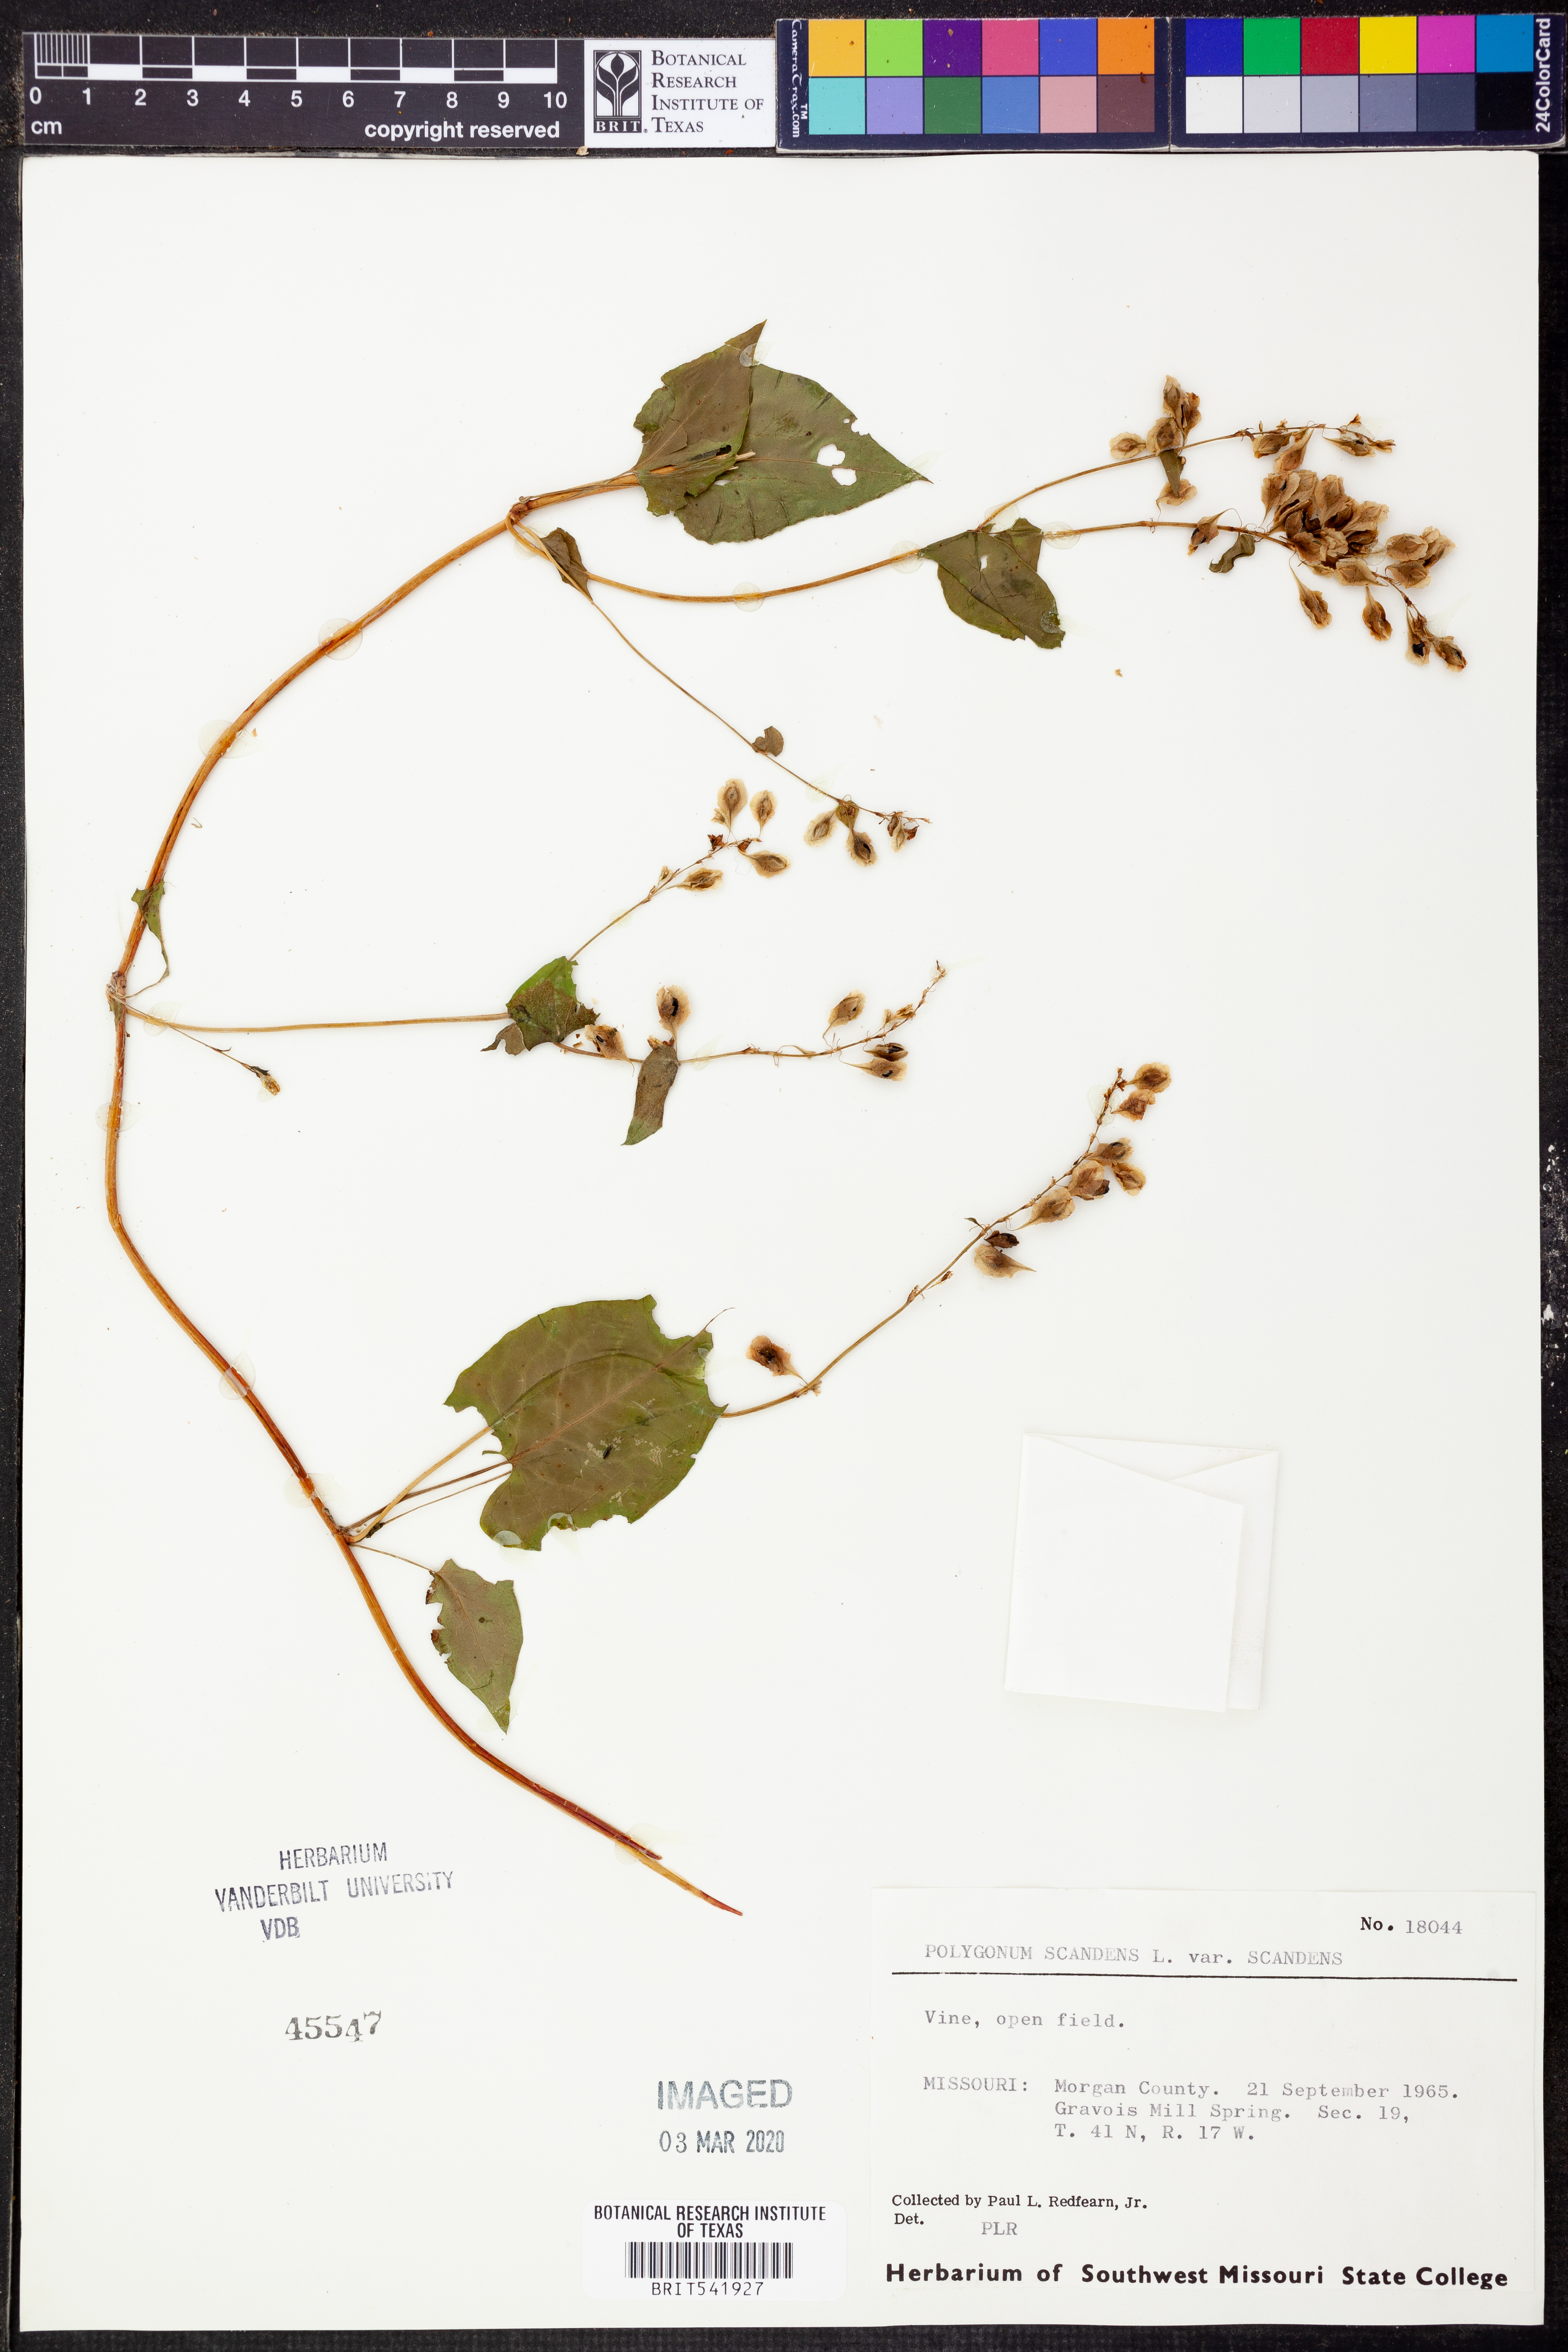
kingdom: Plantae
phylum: Tracheophyta
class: Magnoliopsida
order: Caryophyllales
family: Polygonaceae
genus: Fallopia
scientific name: Fallopia scandens
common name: Climbing false buckwheat
